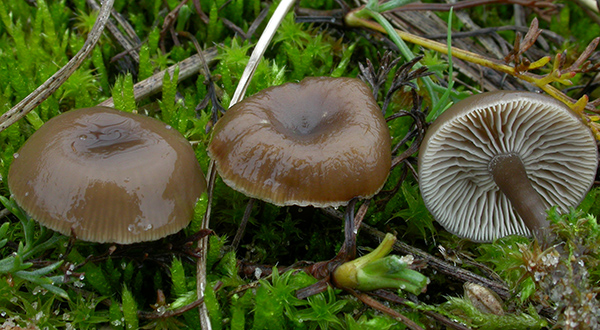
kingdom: Fungi
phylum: Basidiomycota
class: Agaricomycetes
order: Agaricales
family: Tricholomataceae
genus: Clitocybe
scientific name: Clitocybe barbularum
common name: klit-tragthat
